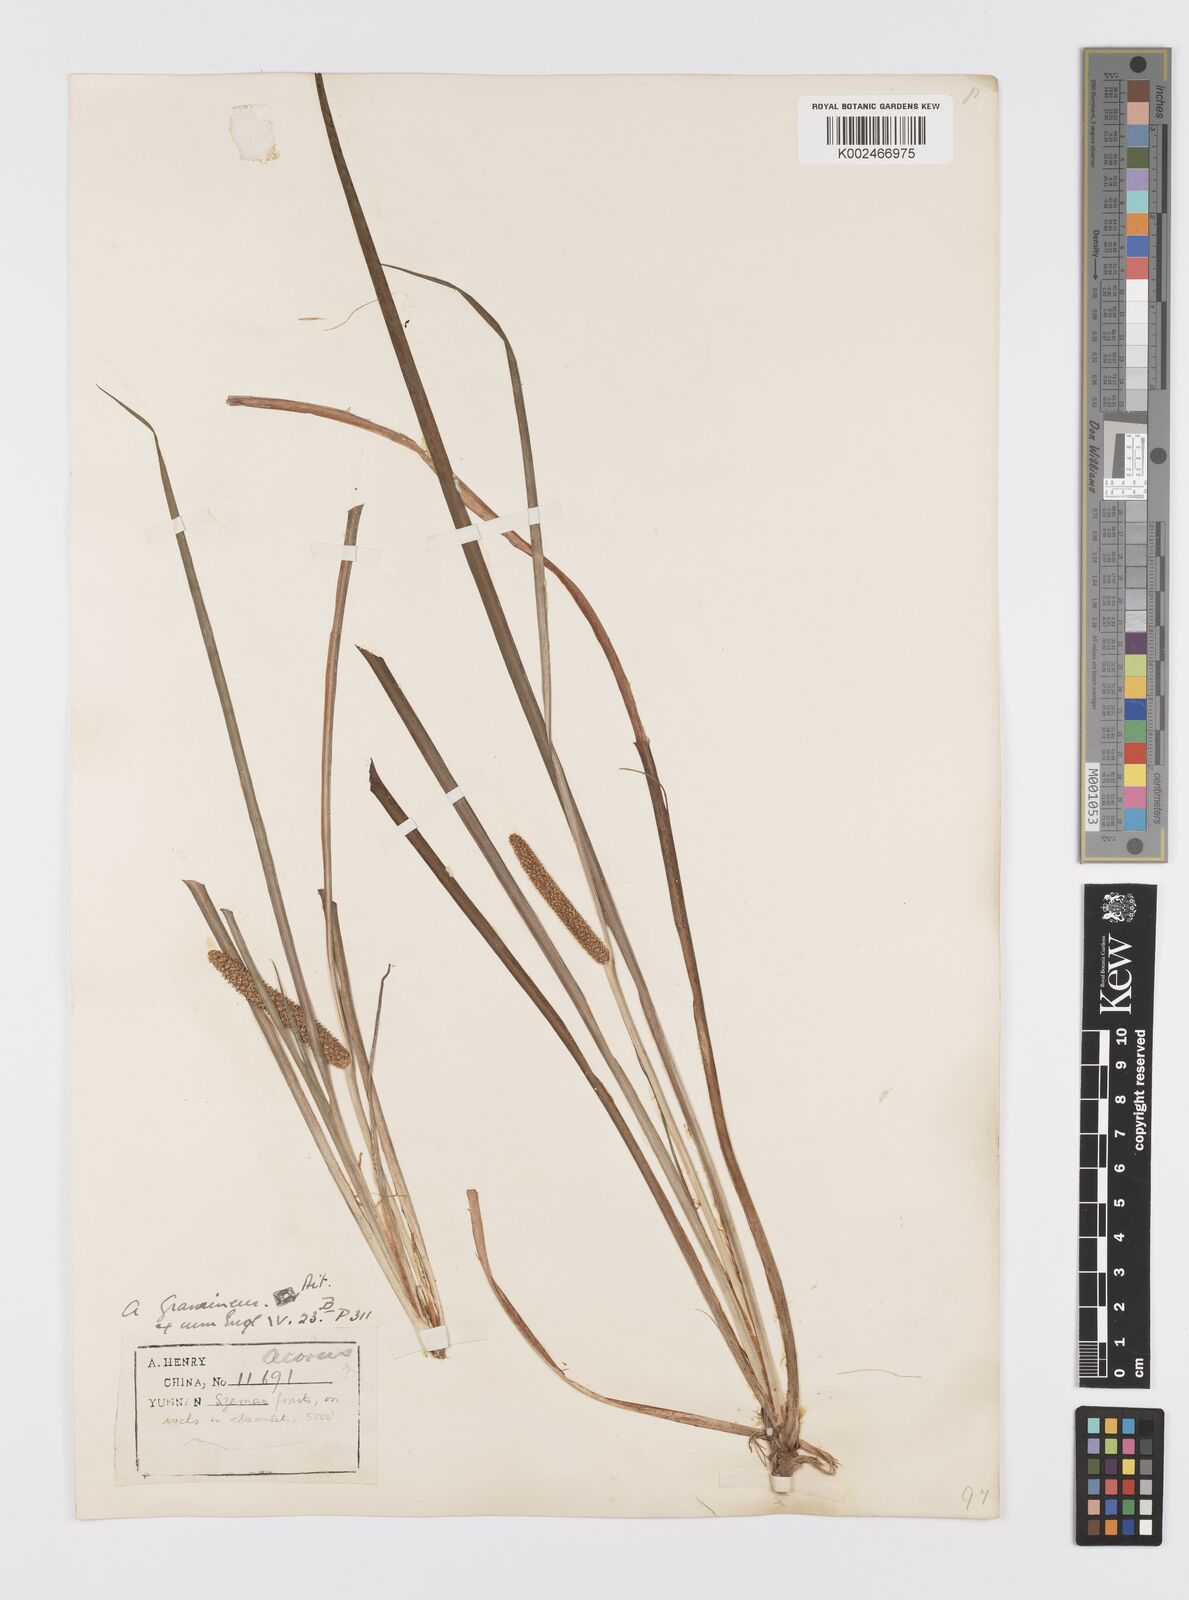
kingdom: Plantae
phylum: Tracheophyta
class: Liliopsida
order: Acorales
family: Acoraceae
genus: Acorus
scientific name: Acorus gramineus
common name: Slender sweet-flag
